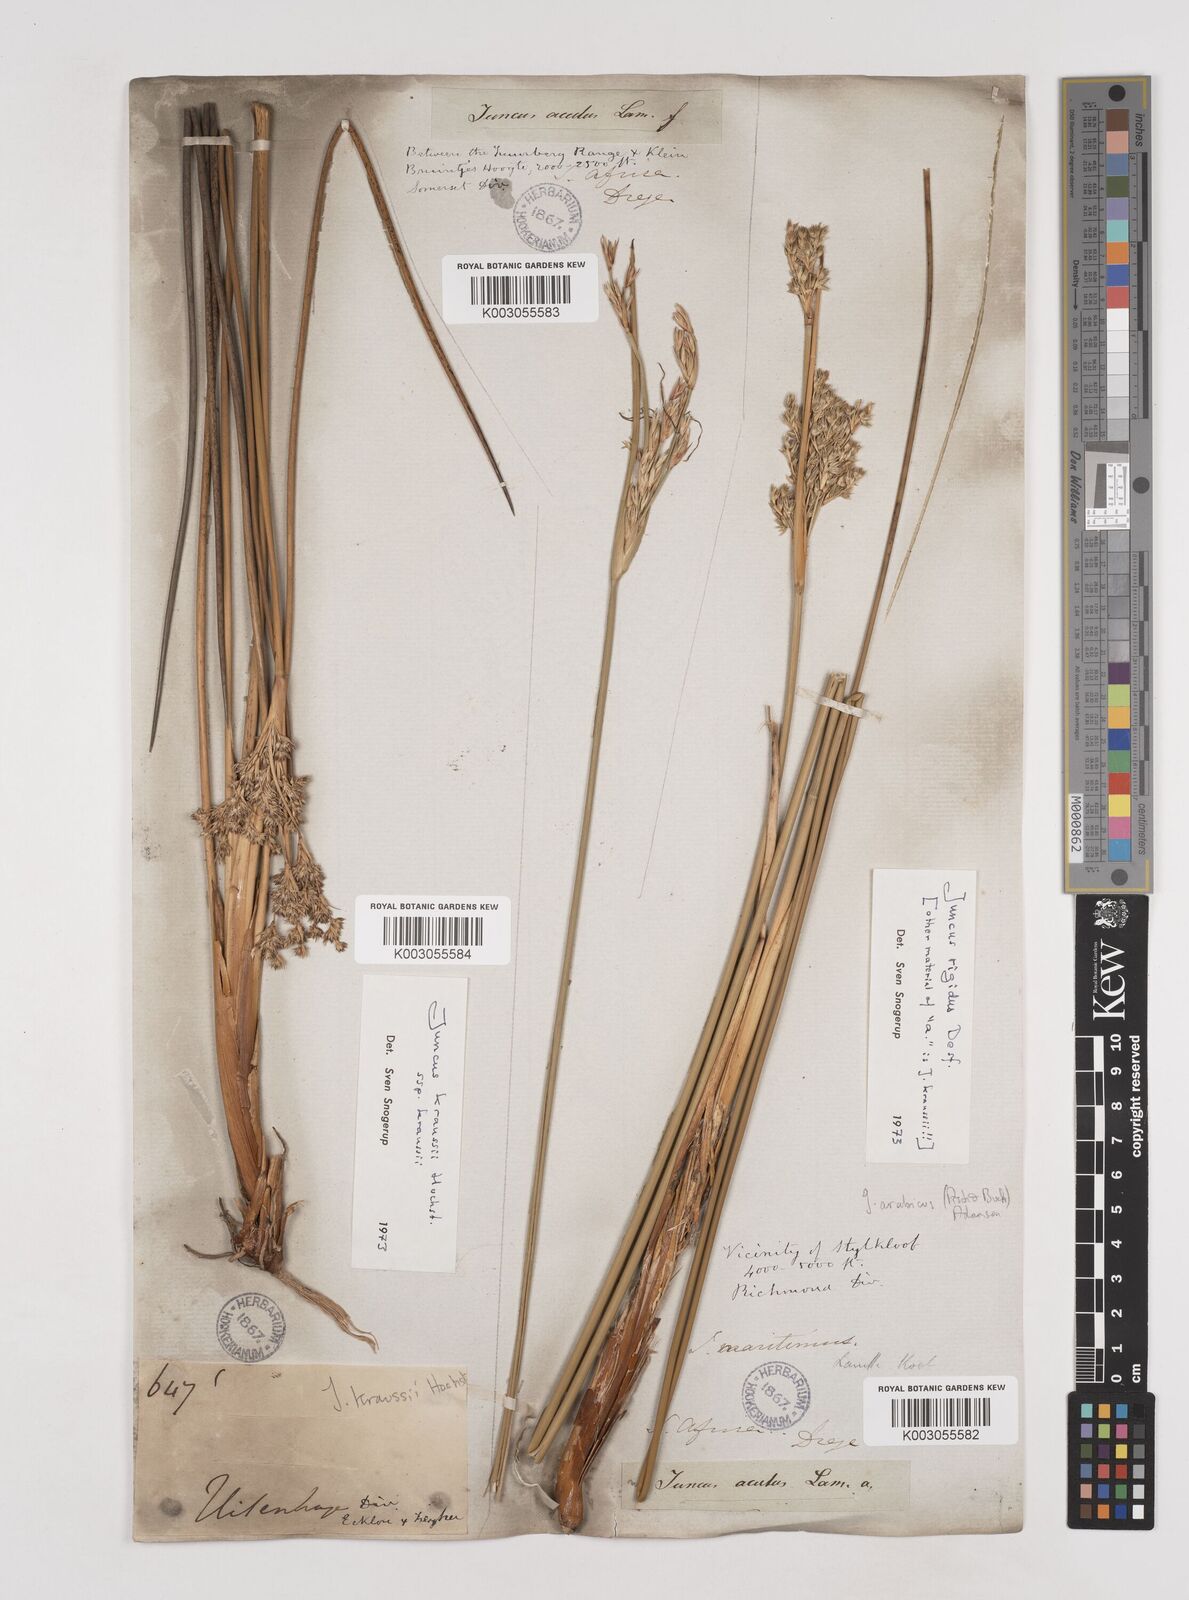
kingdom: Plantae
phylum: Tracheophyta
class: Liliopsida
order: Poales
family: Juncaceae
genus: Juncus
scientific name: Juncus kraussii
